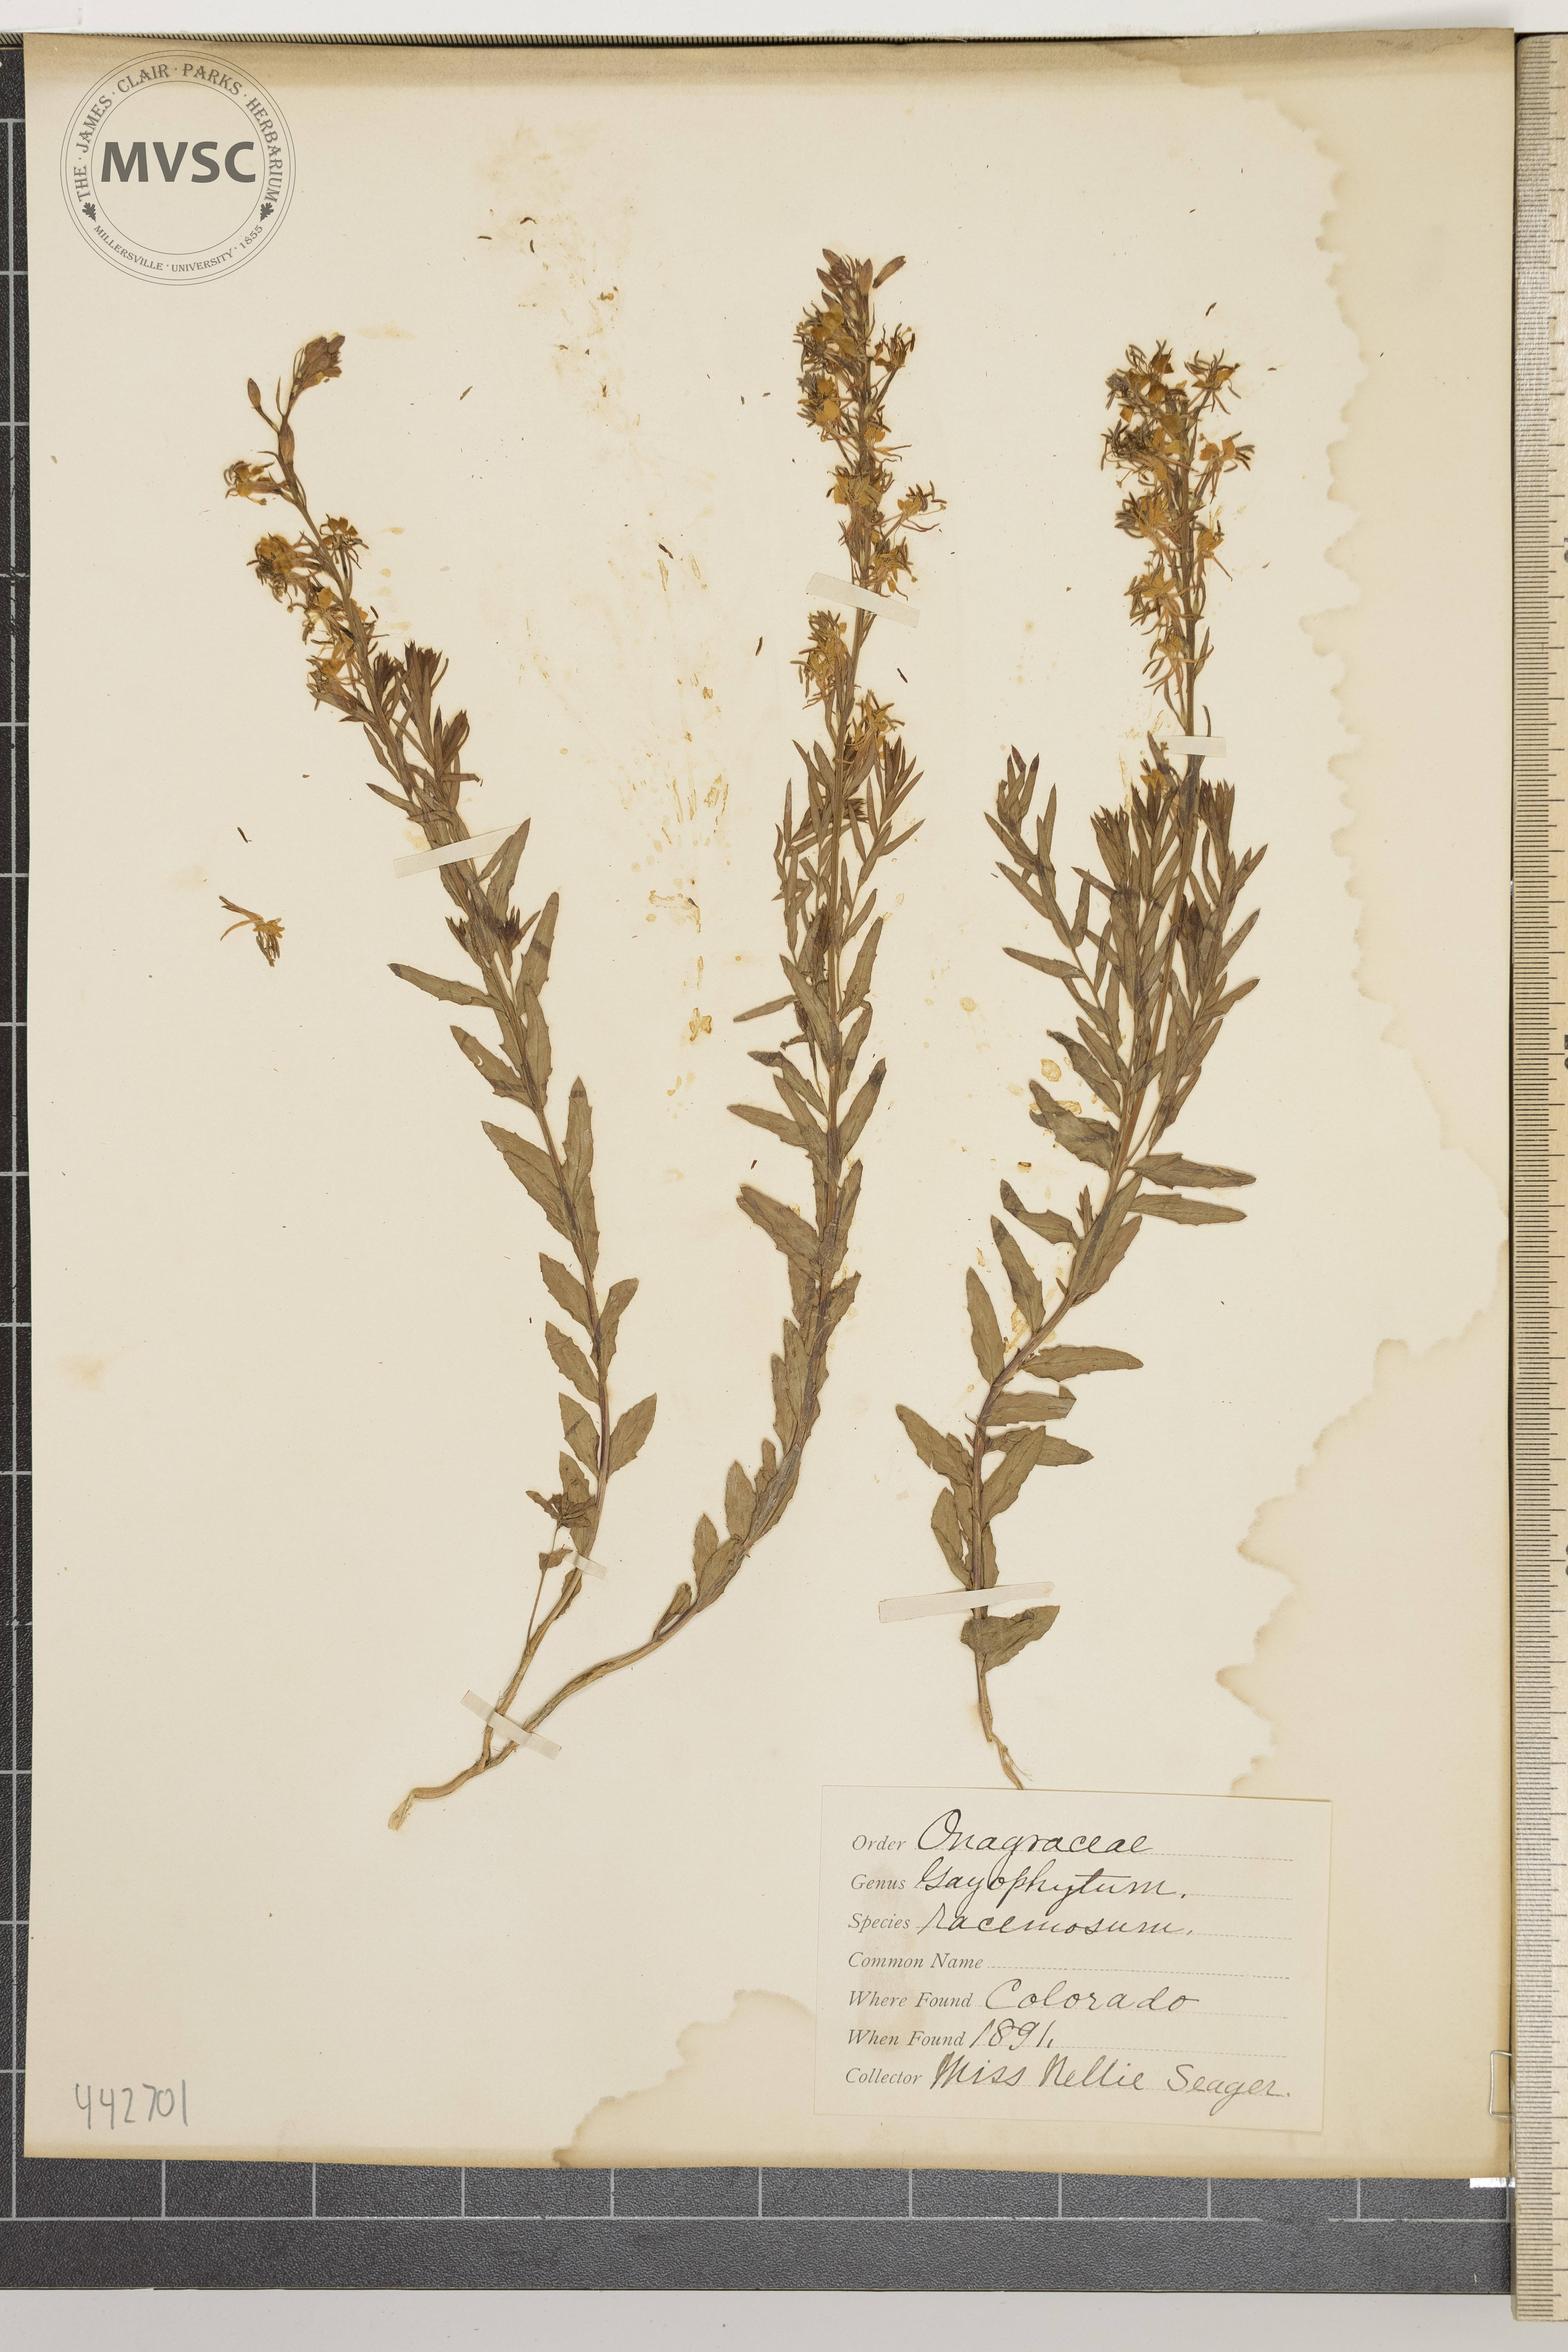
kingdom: Plantae
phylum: Tracheophyta
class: Magnoliopsida
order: Myrtales
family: Onagraceae
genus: Gayophytum
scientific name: Gayophytum racemosum
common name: Blackfoot groundsmoke
